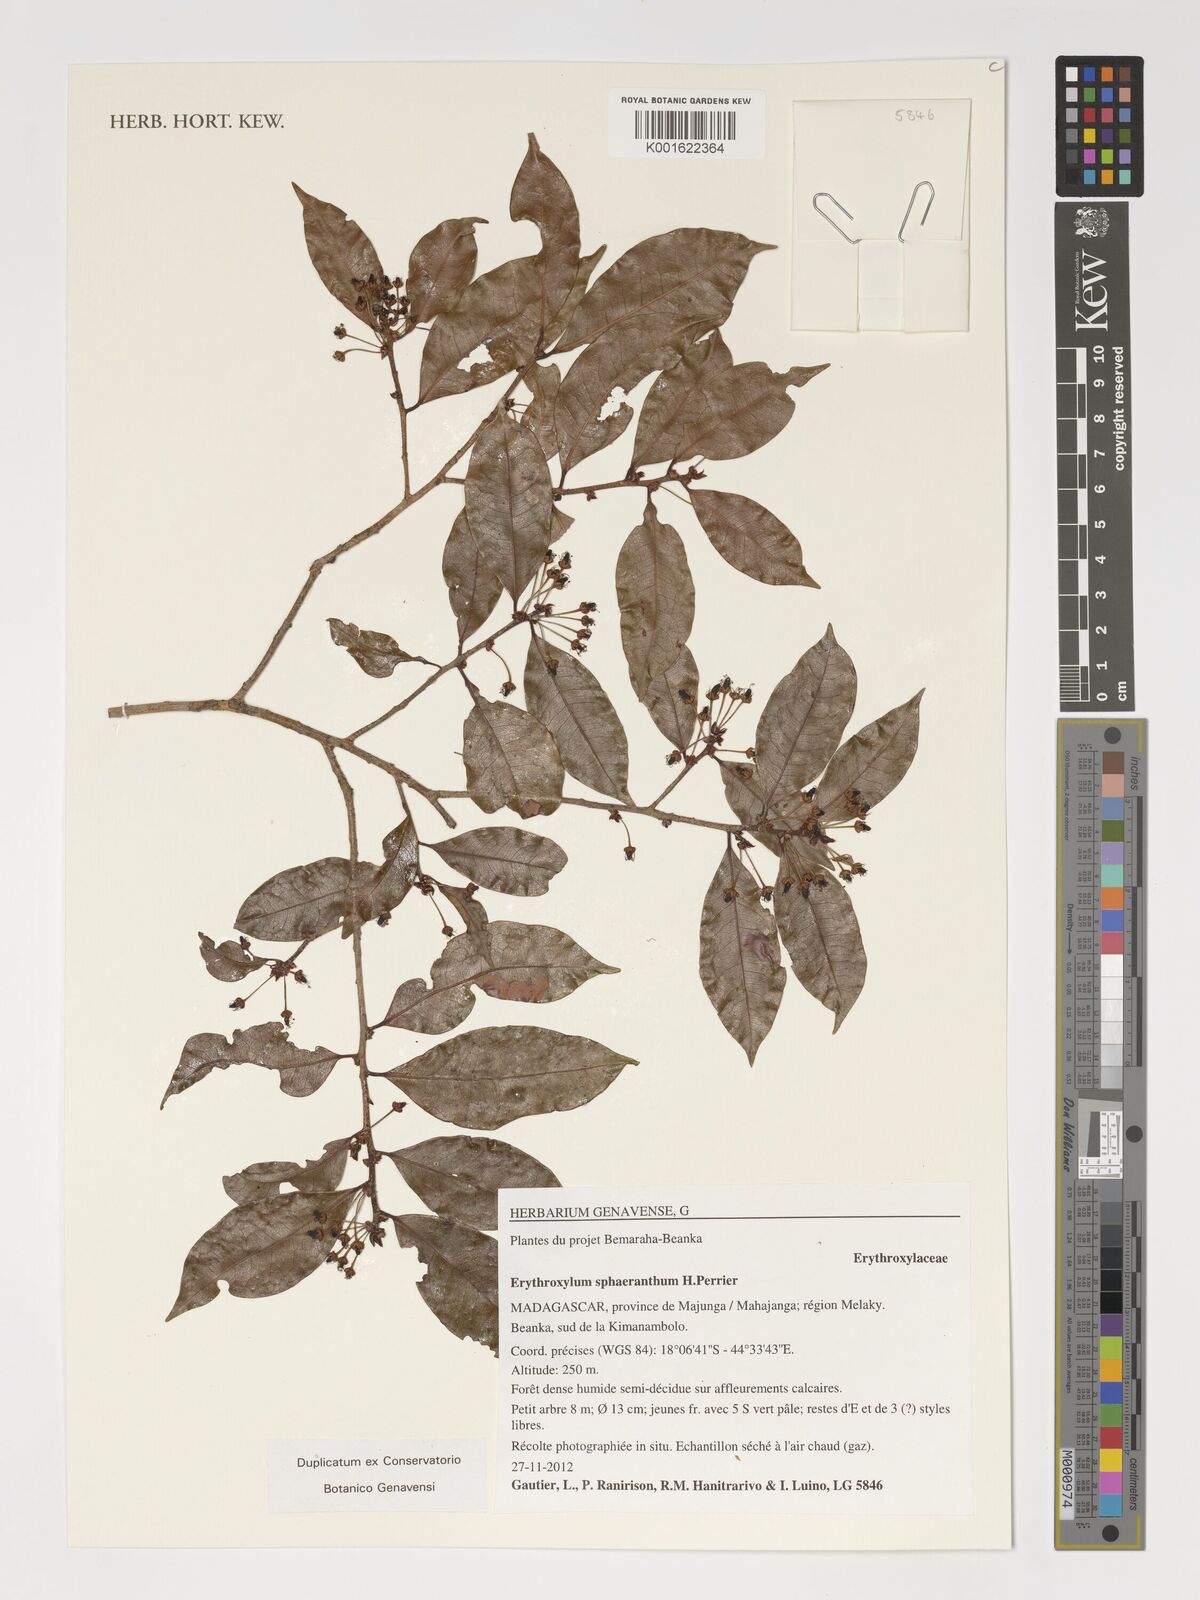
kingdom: Plantae
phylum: Tracheophyta
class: Magnoliopsida
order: Malpighiales
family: Erythroxylaceae
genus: Erythroxylum
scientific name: Erythroxylum sphaeranthum
